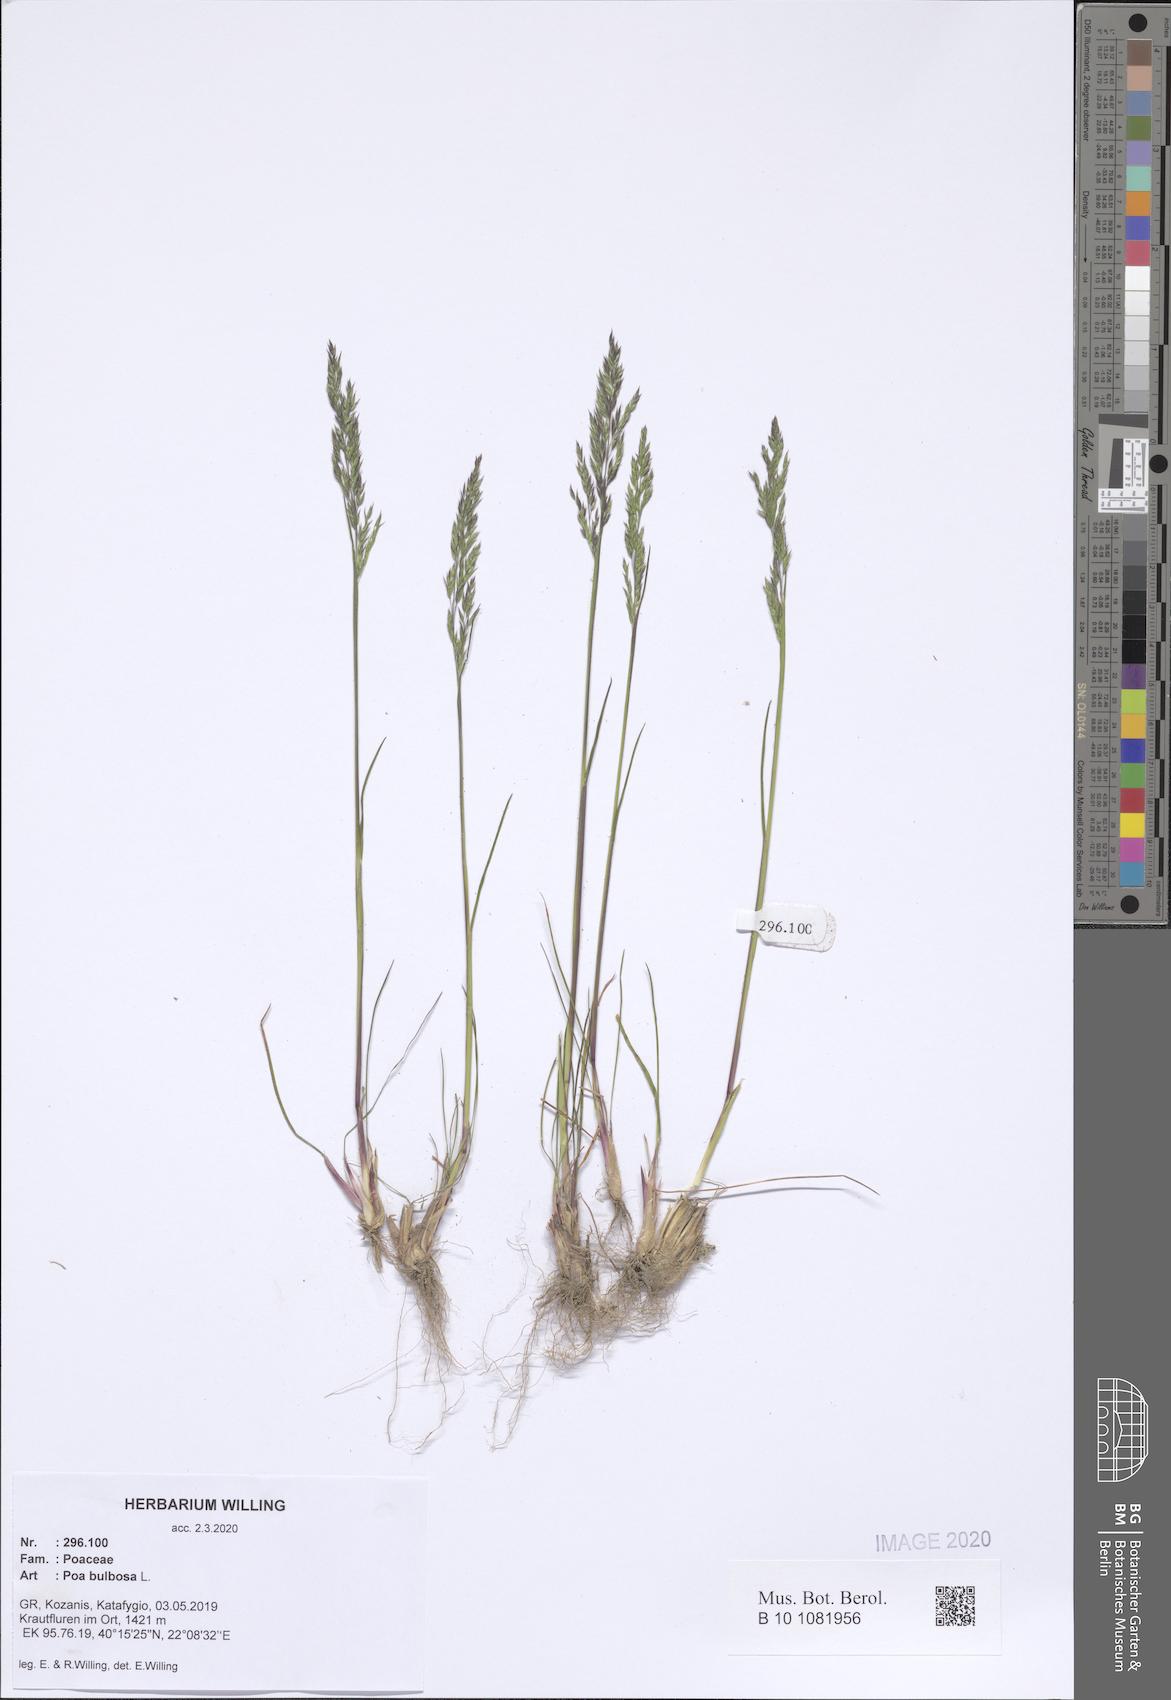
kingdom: Plantae
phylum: Tracheophyta
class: Liliopsida
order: Poales
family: Poaceae
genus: Poa
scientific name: Poa bulbosa
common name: Bulbous bluegrass
